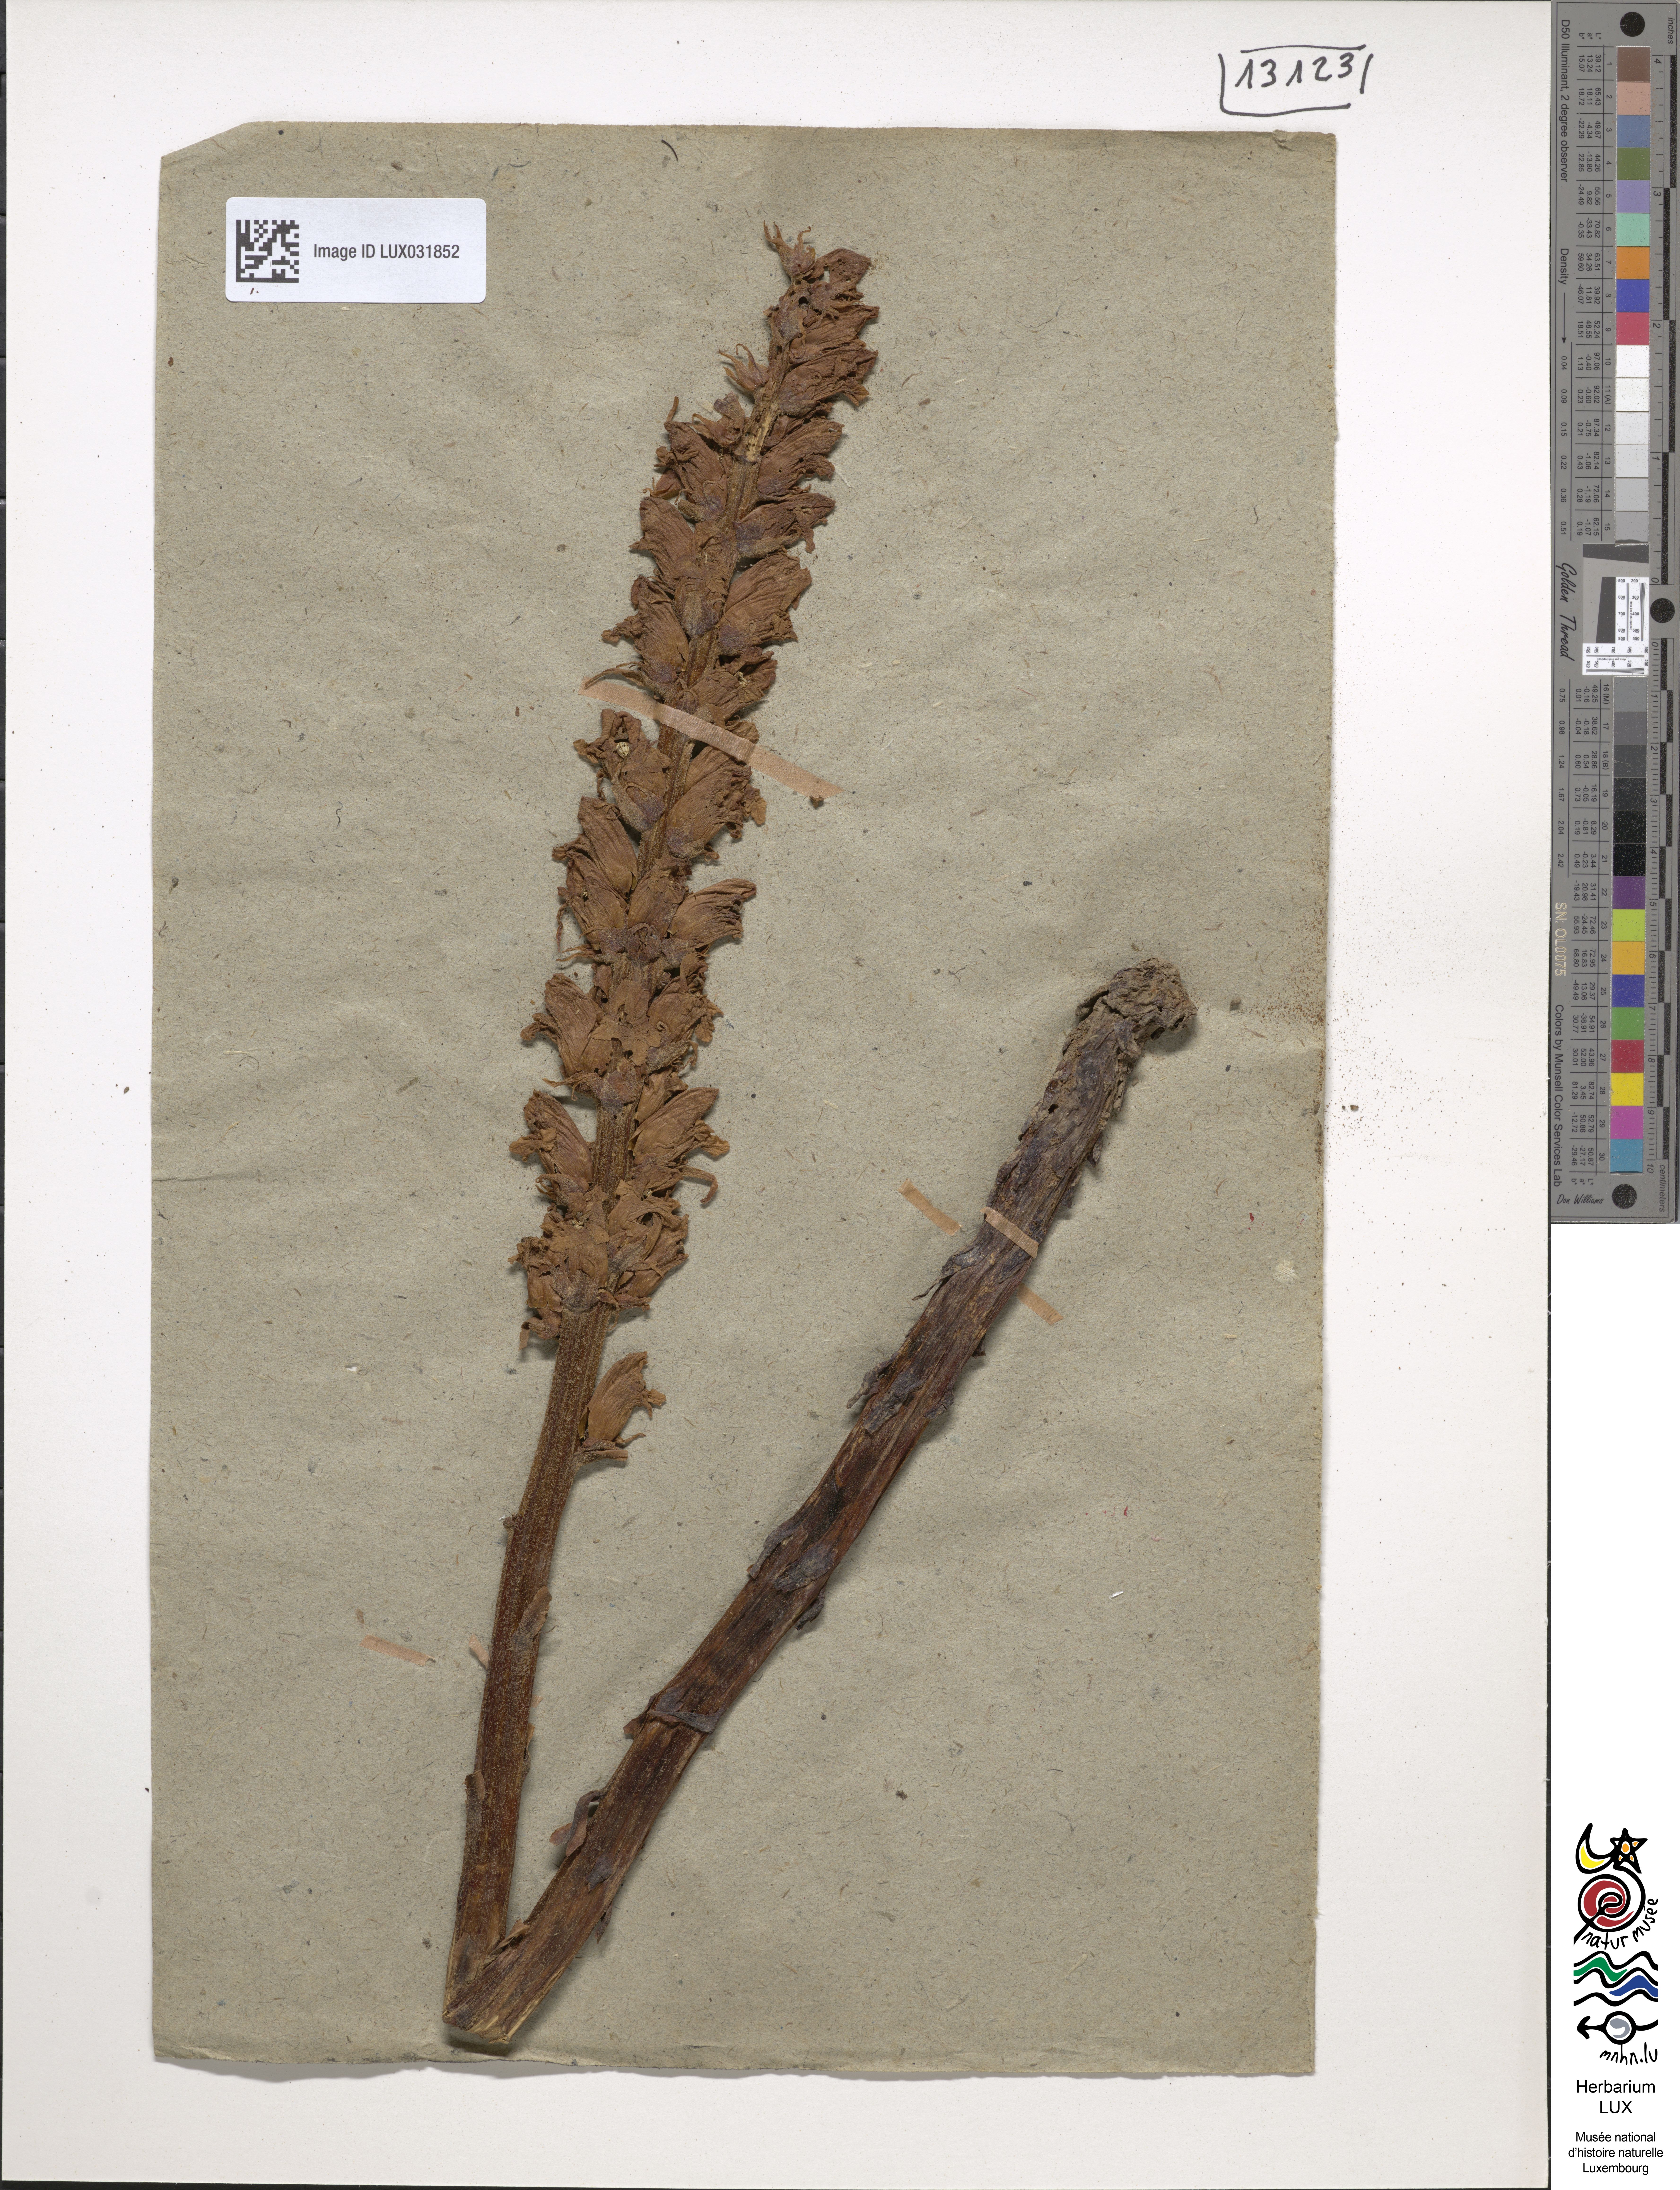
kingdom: Plantae
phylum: Tracheophyta
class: Magnoliopsida
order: Lamiales
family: Orobanchaceae
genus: Orobanche
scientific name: Orobanche rapum-genistae
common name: Greater broomrape
